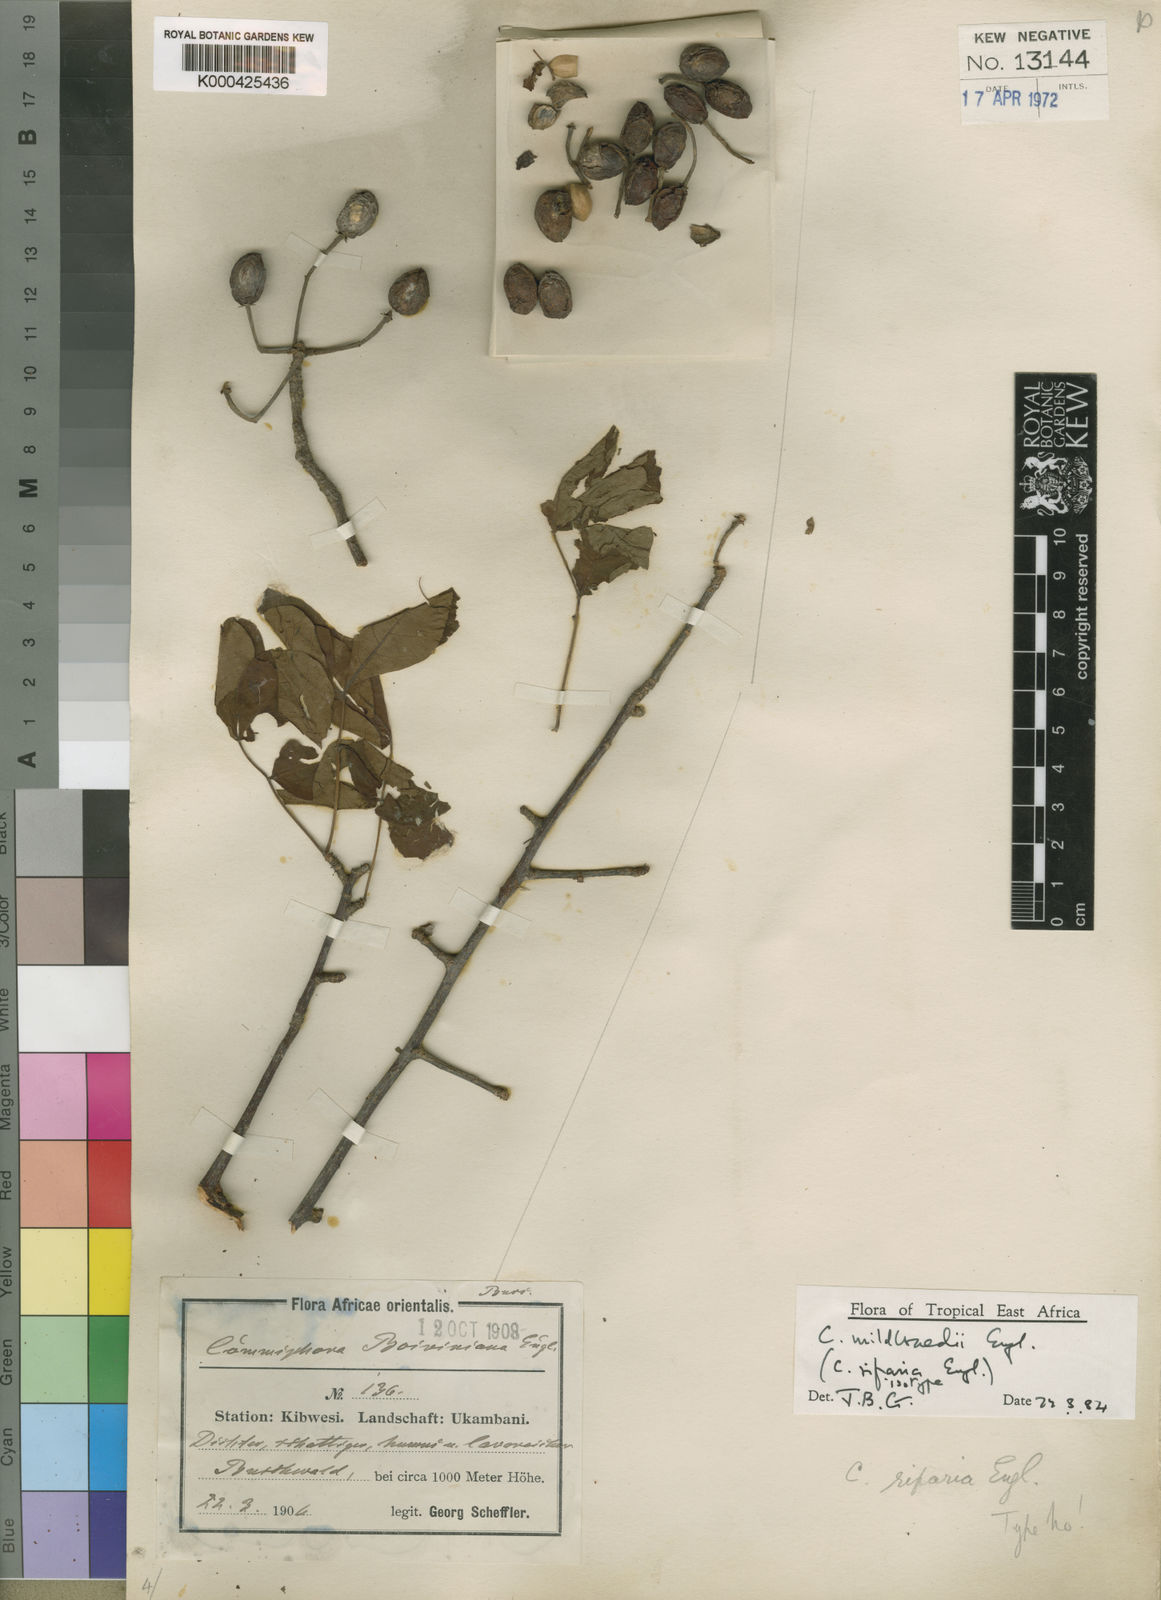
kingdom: Plantae
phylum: Tracheophyta
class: Magnoliopsida
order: Sapindales
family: Burseraceae
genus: Commiphora
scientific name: Commiphora mildbraedii
